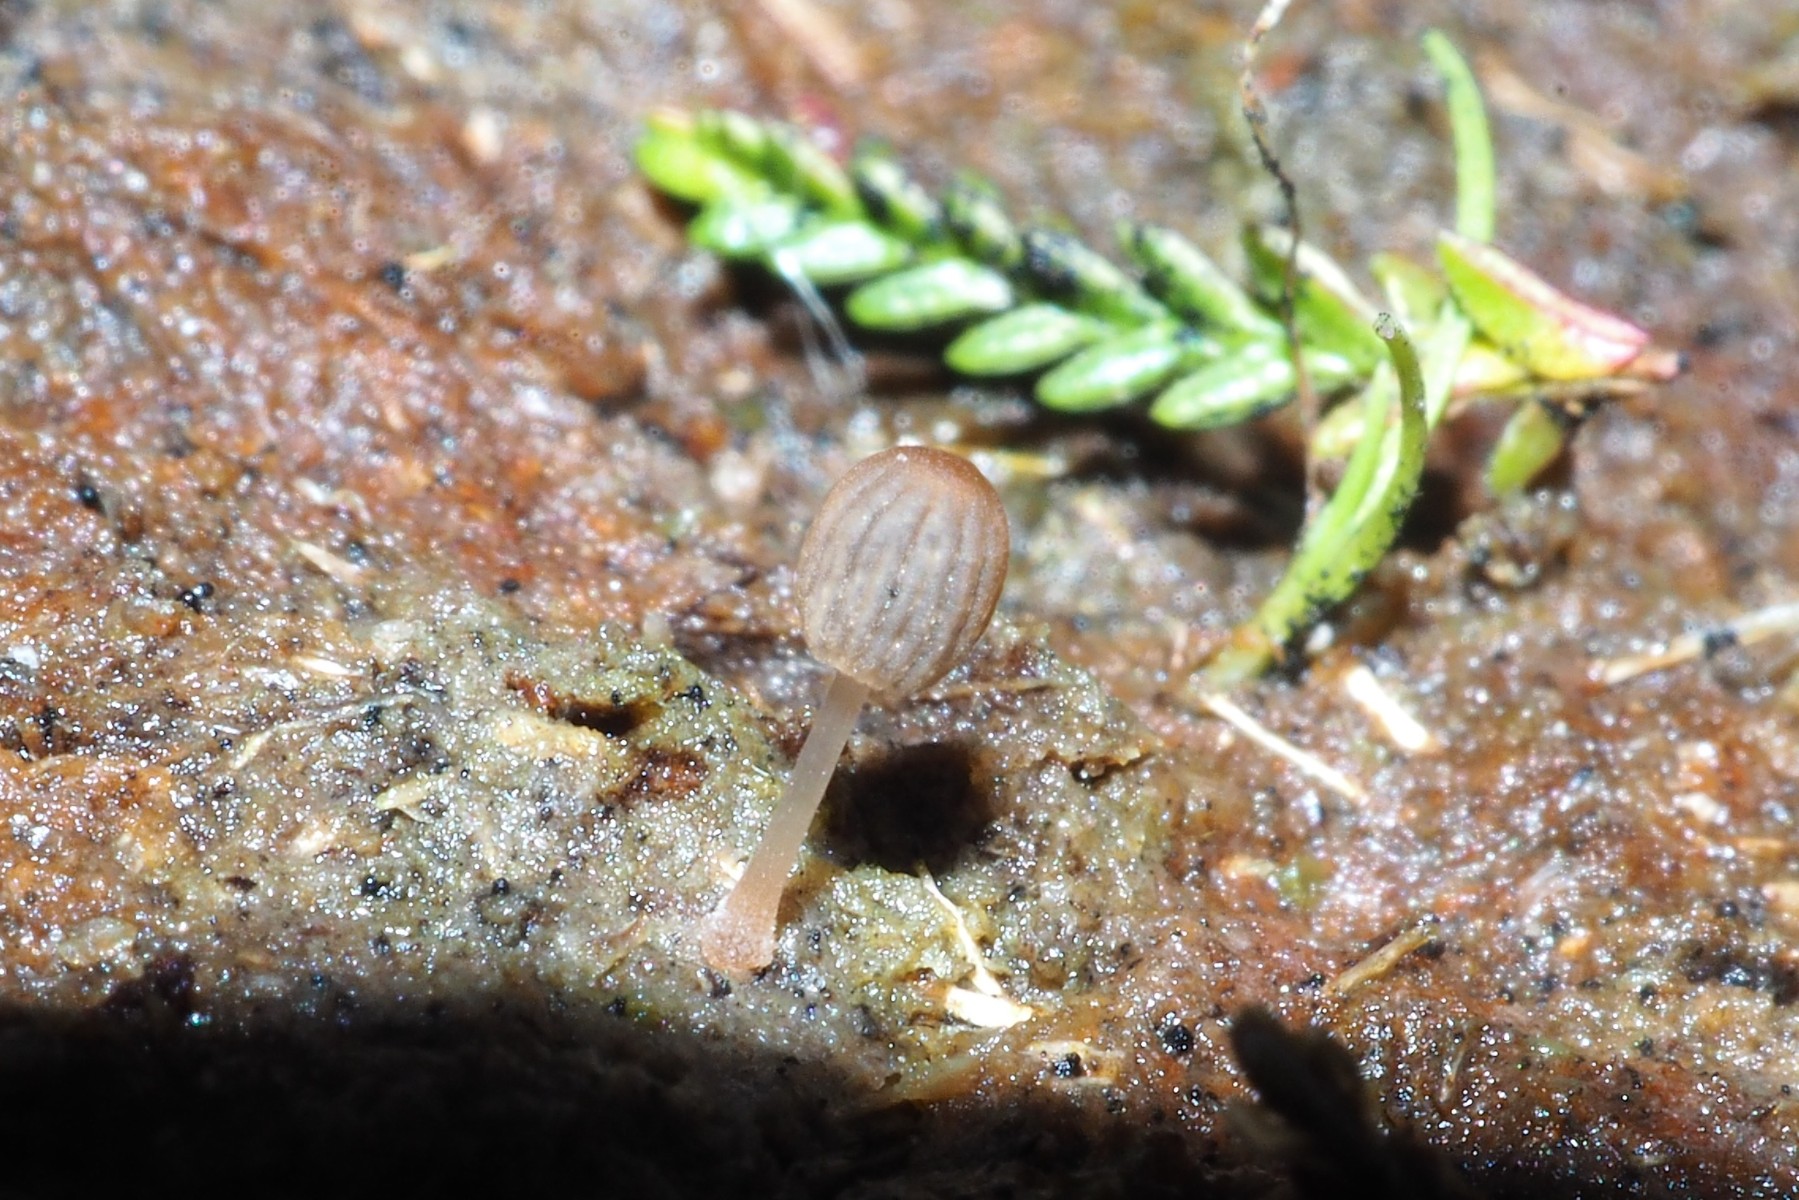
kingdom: Fungi
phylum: Basidiomycota
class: Agaricomycetes
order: Agaricales
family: Psathyrellaceae
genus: Parasola
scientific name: Parasola misera
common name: lillebitte hjulhat
